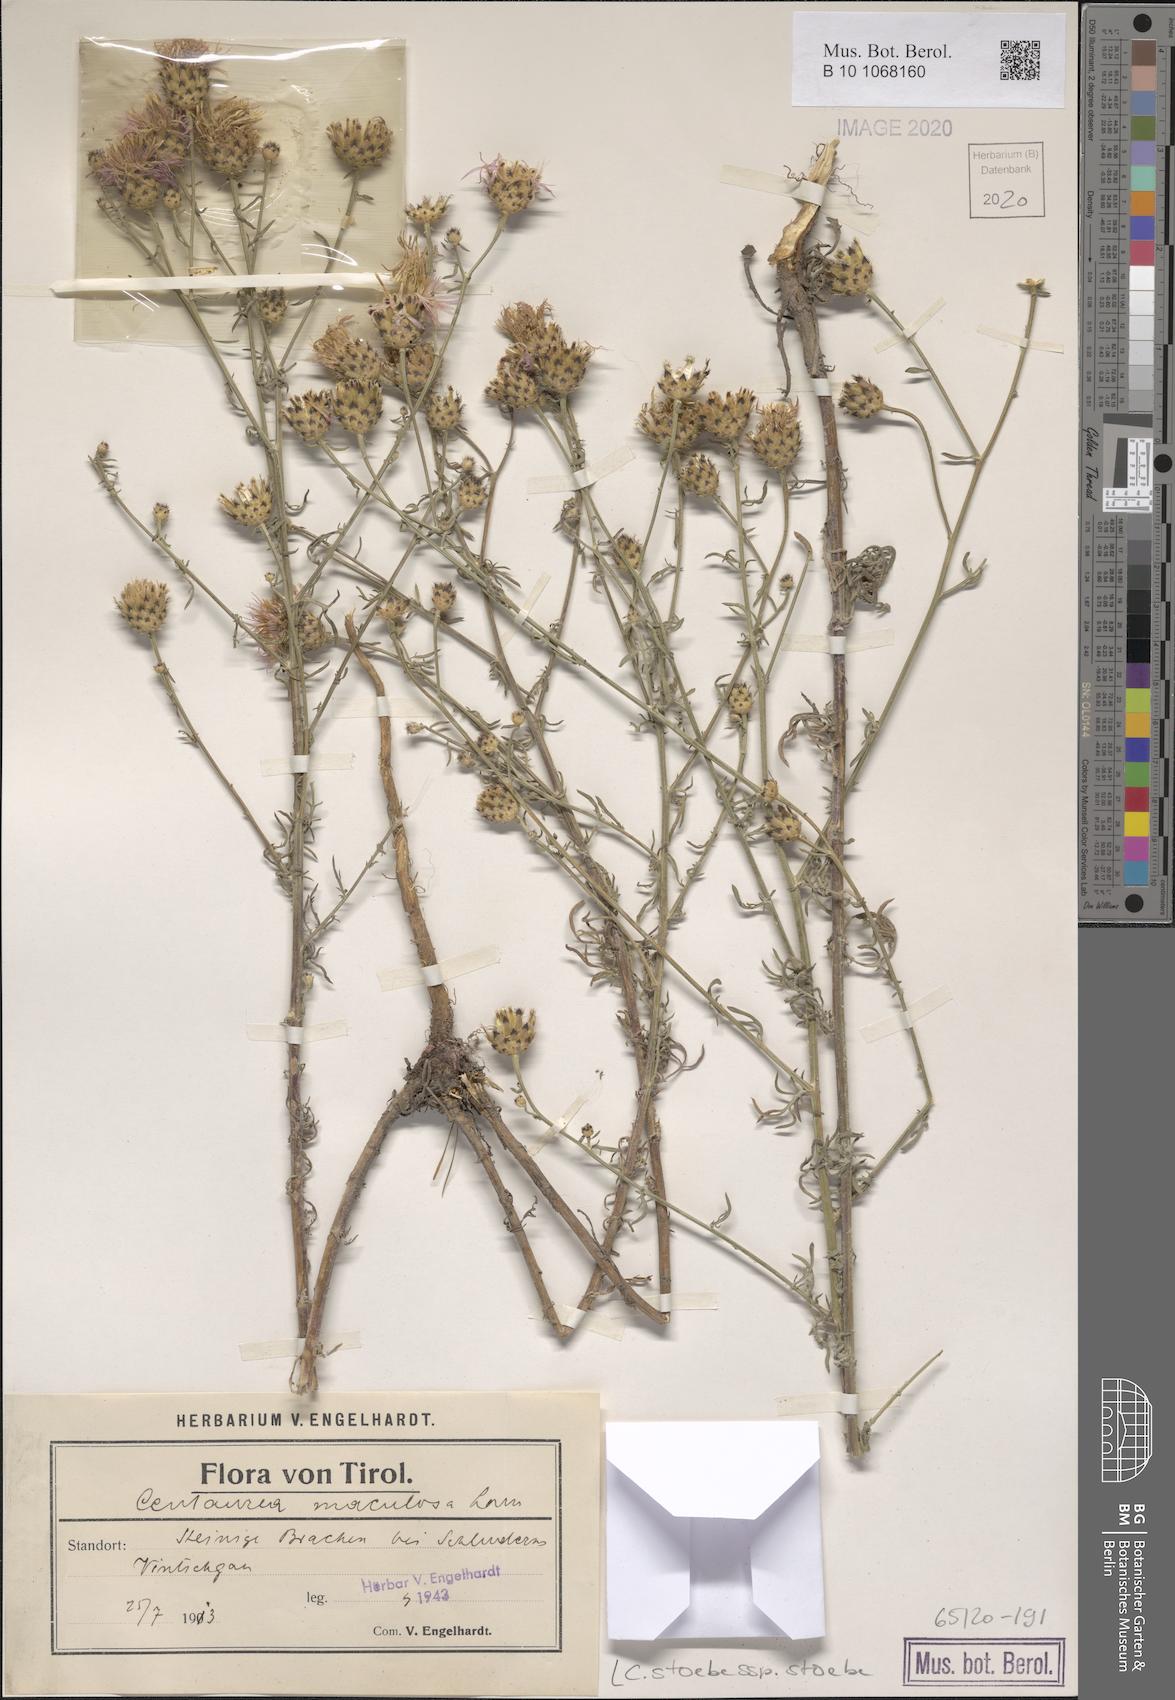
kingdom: Plantae
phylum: Tracheophyta
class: Magnoliopsida
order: Asterales
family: Asteraceae
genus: Centaurea
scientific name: Centaurea stoebe
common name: Spotted knapweed
